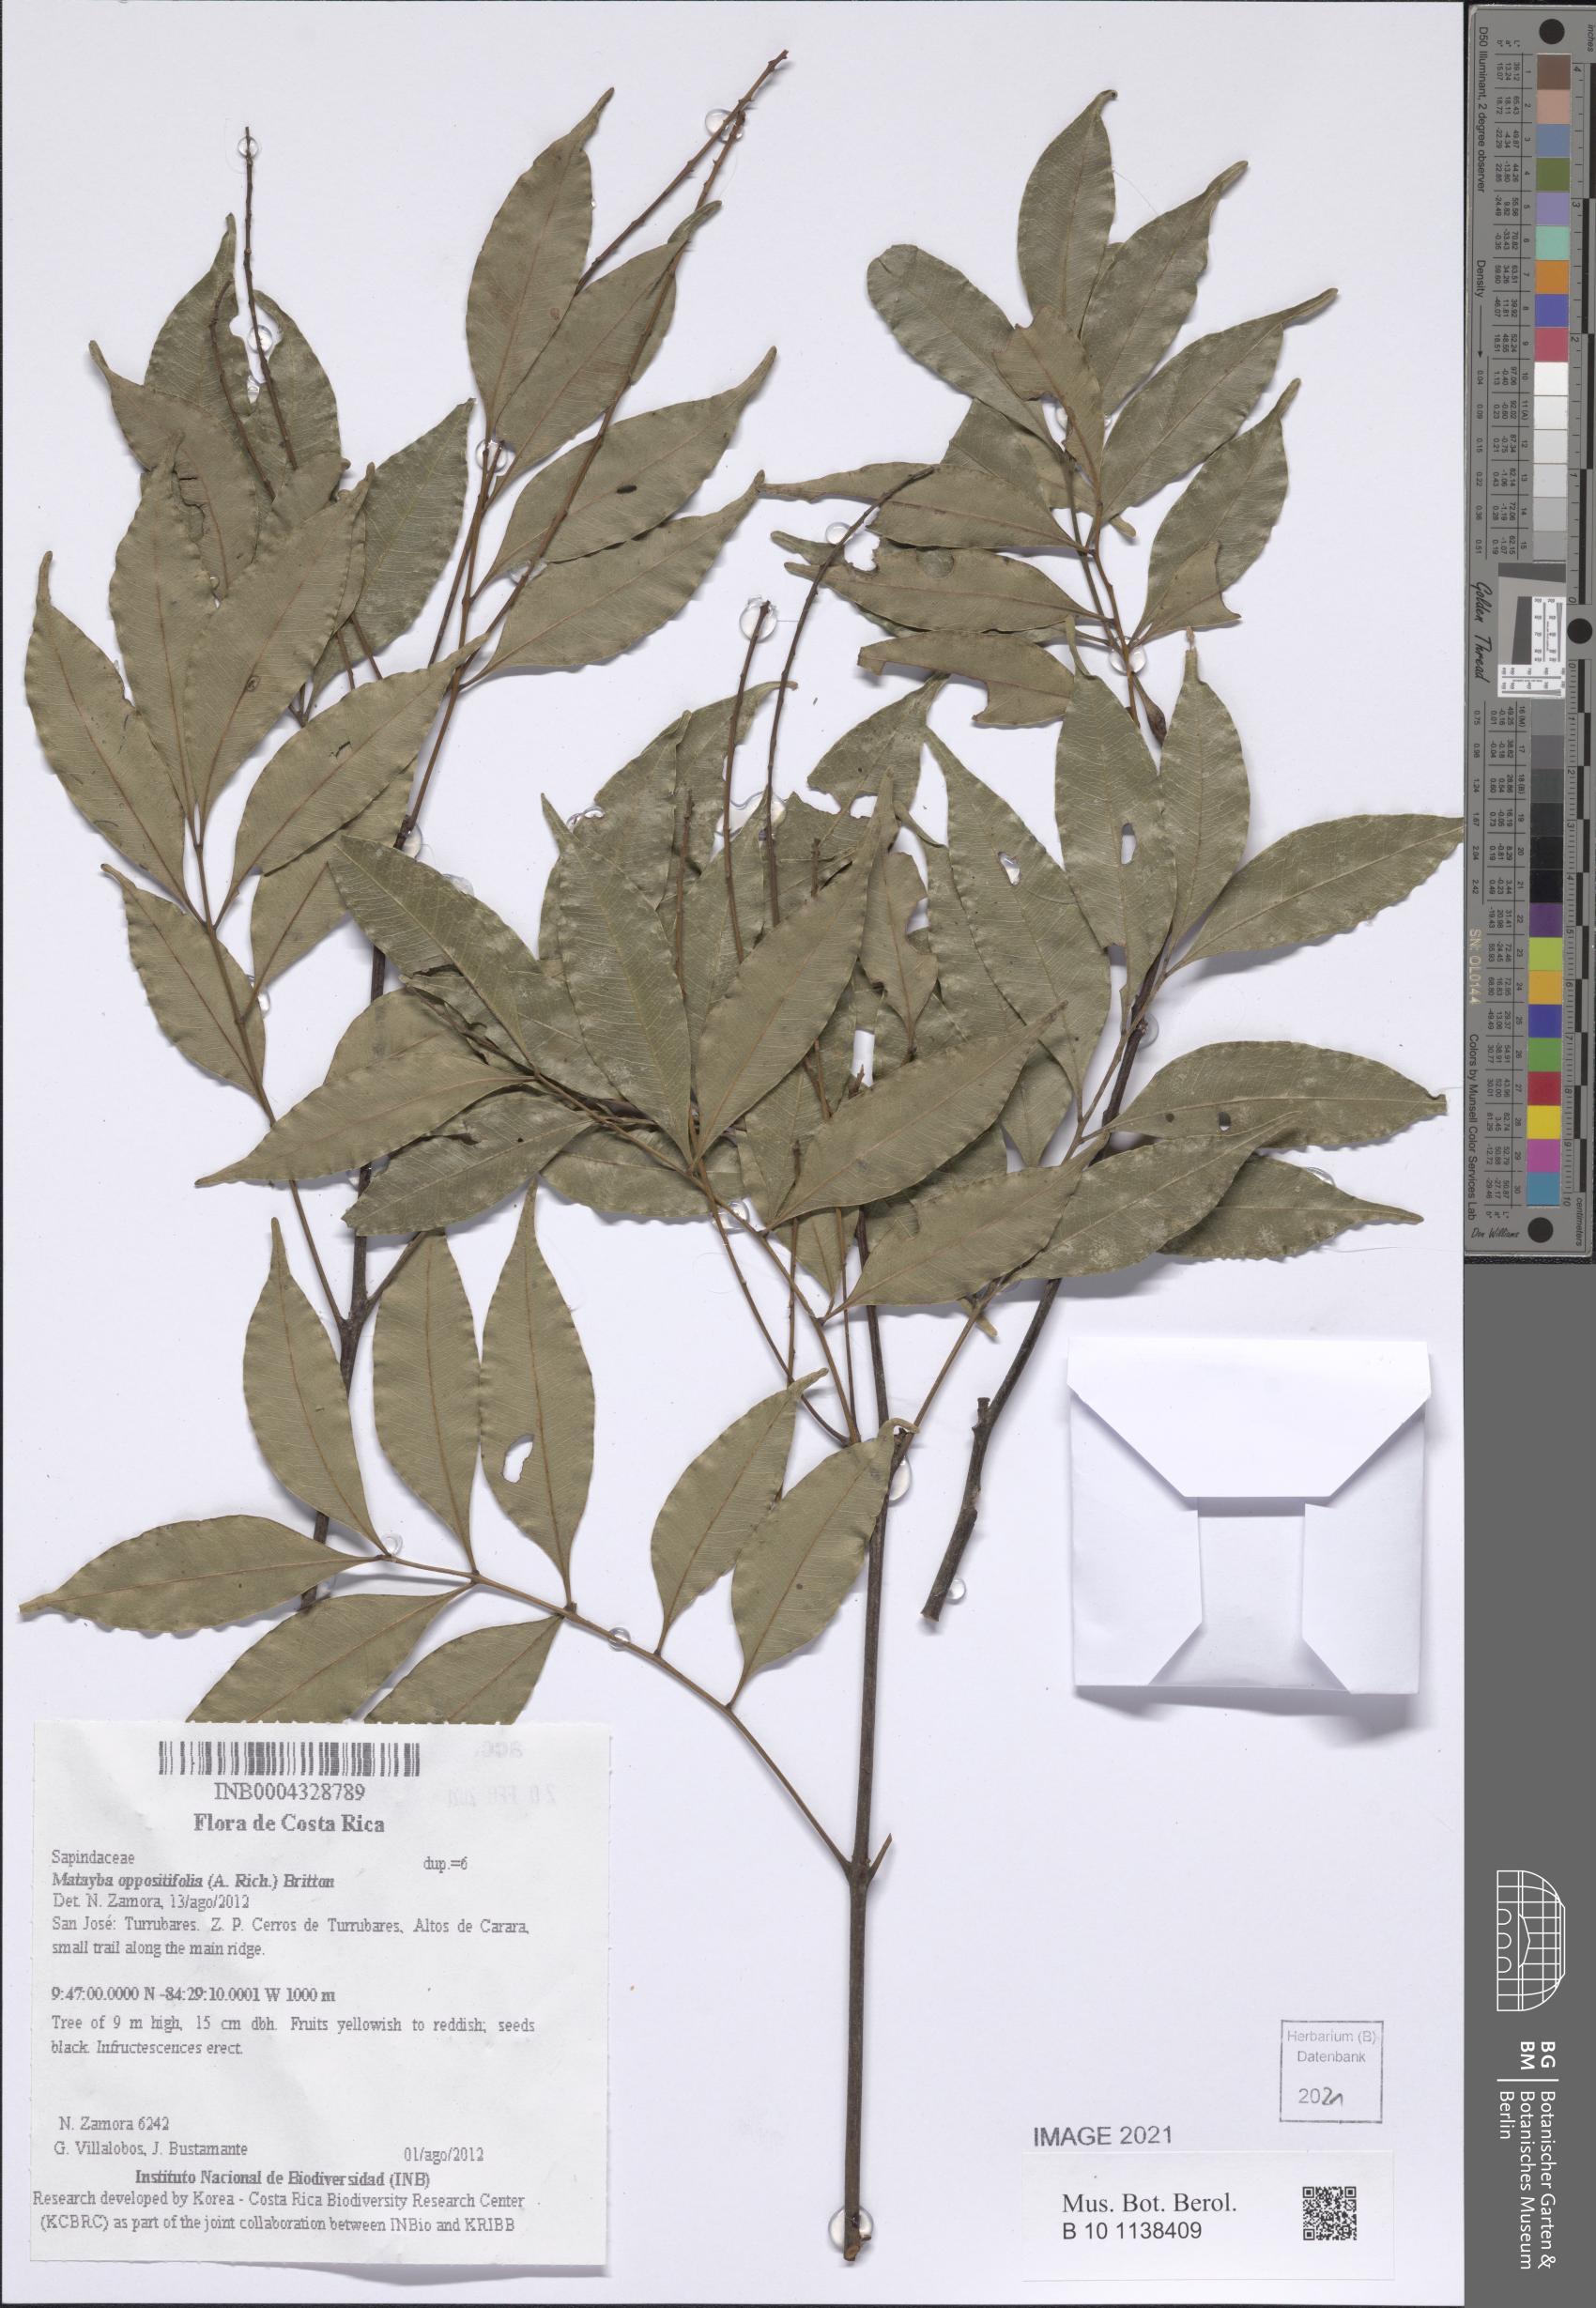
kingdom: Plantae
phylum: Tracheophyta
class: Magnoliopsida
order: Sapindales
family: Sapindaceae
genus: Matayba
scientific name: Matayba oppositifolia
